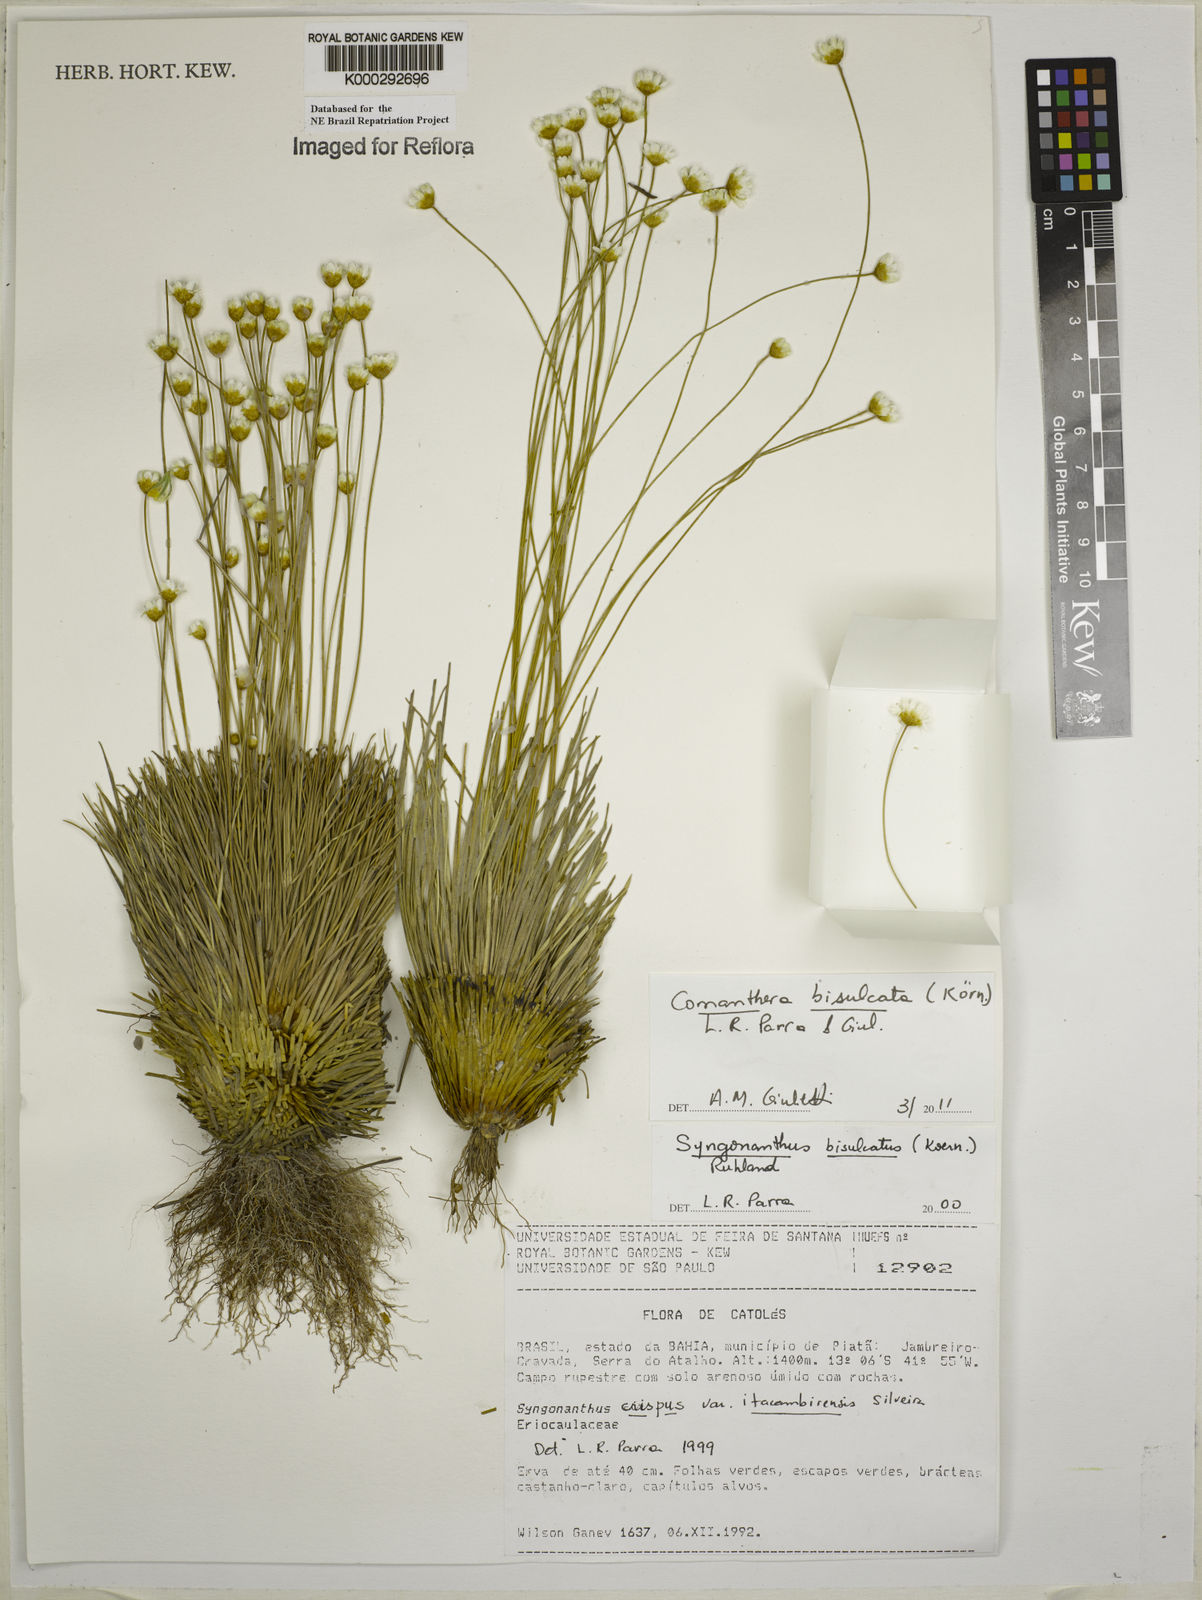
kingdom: Plantae
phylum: Tracheophyta
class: Liliopsida
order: Poales
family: Eriocaulaceae
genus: Comanthera
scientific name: Comanthera bisulcata
